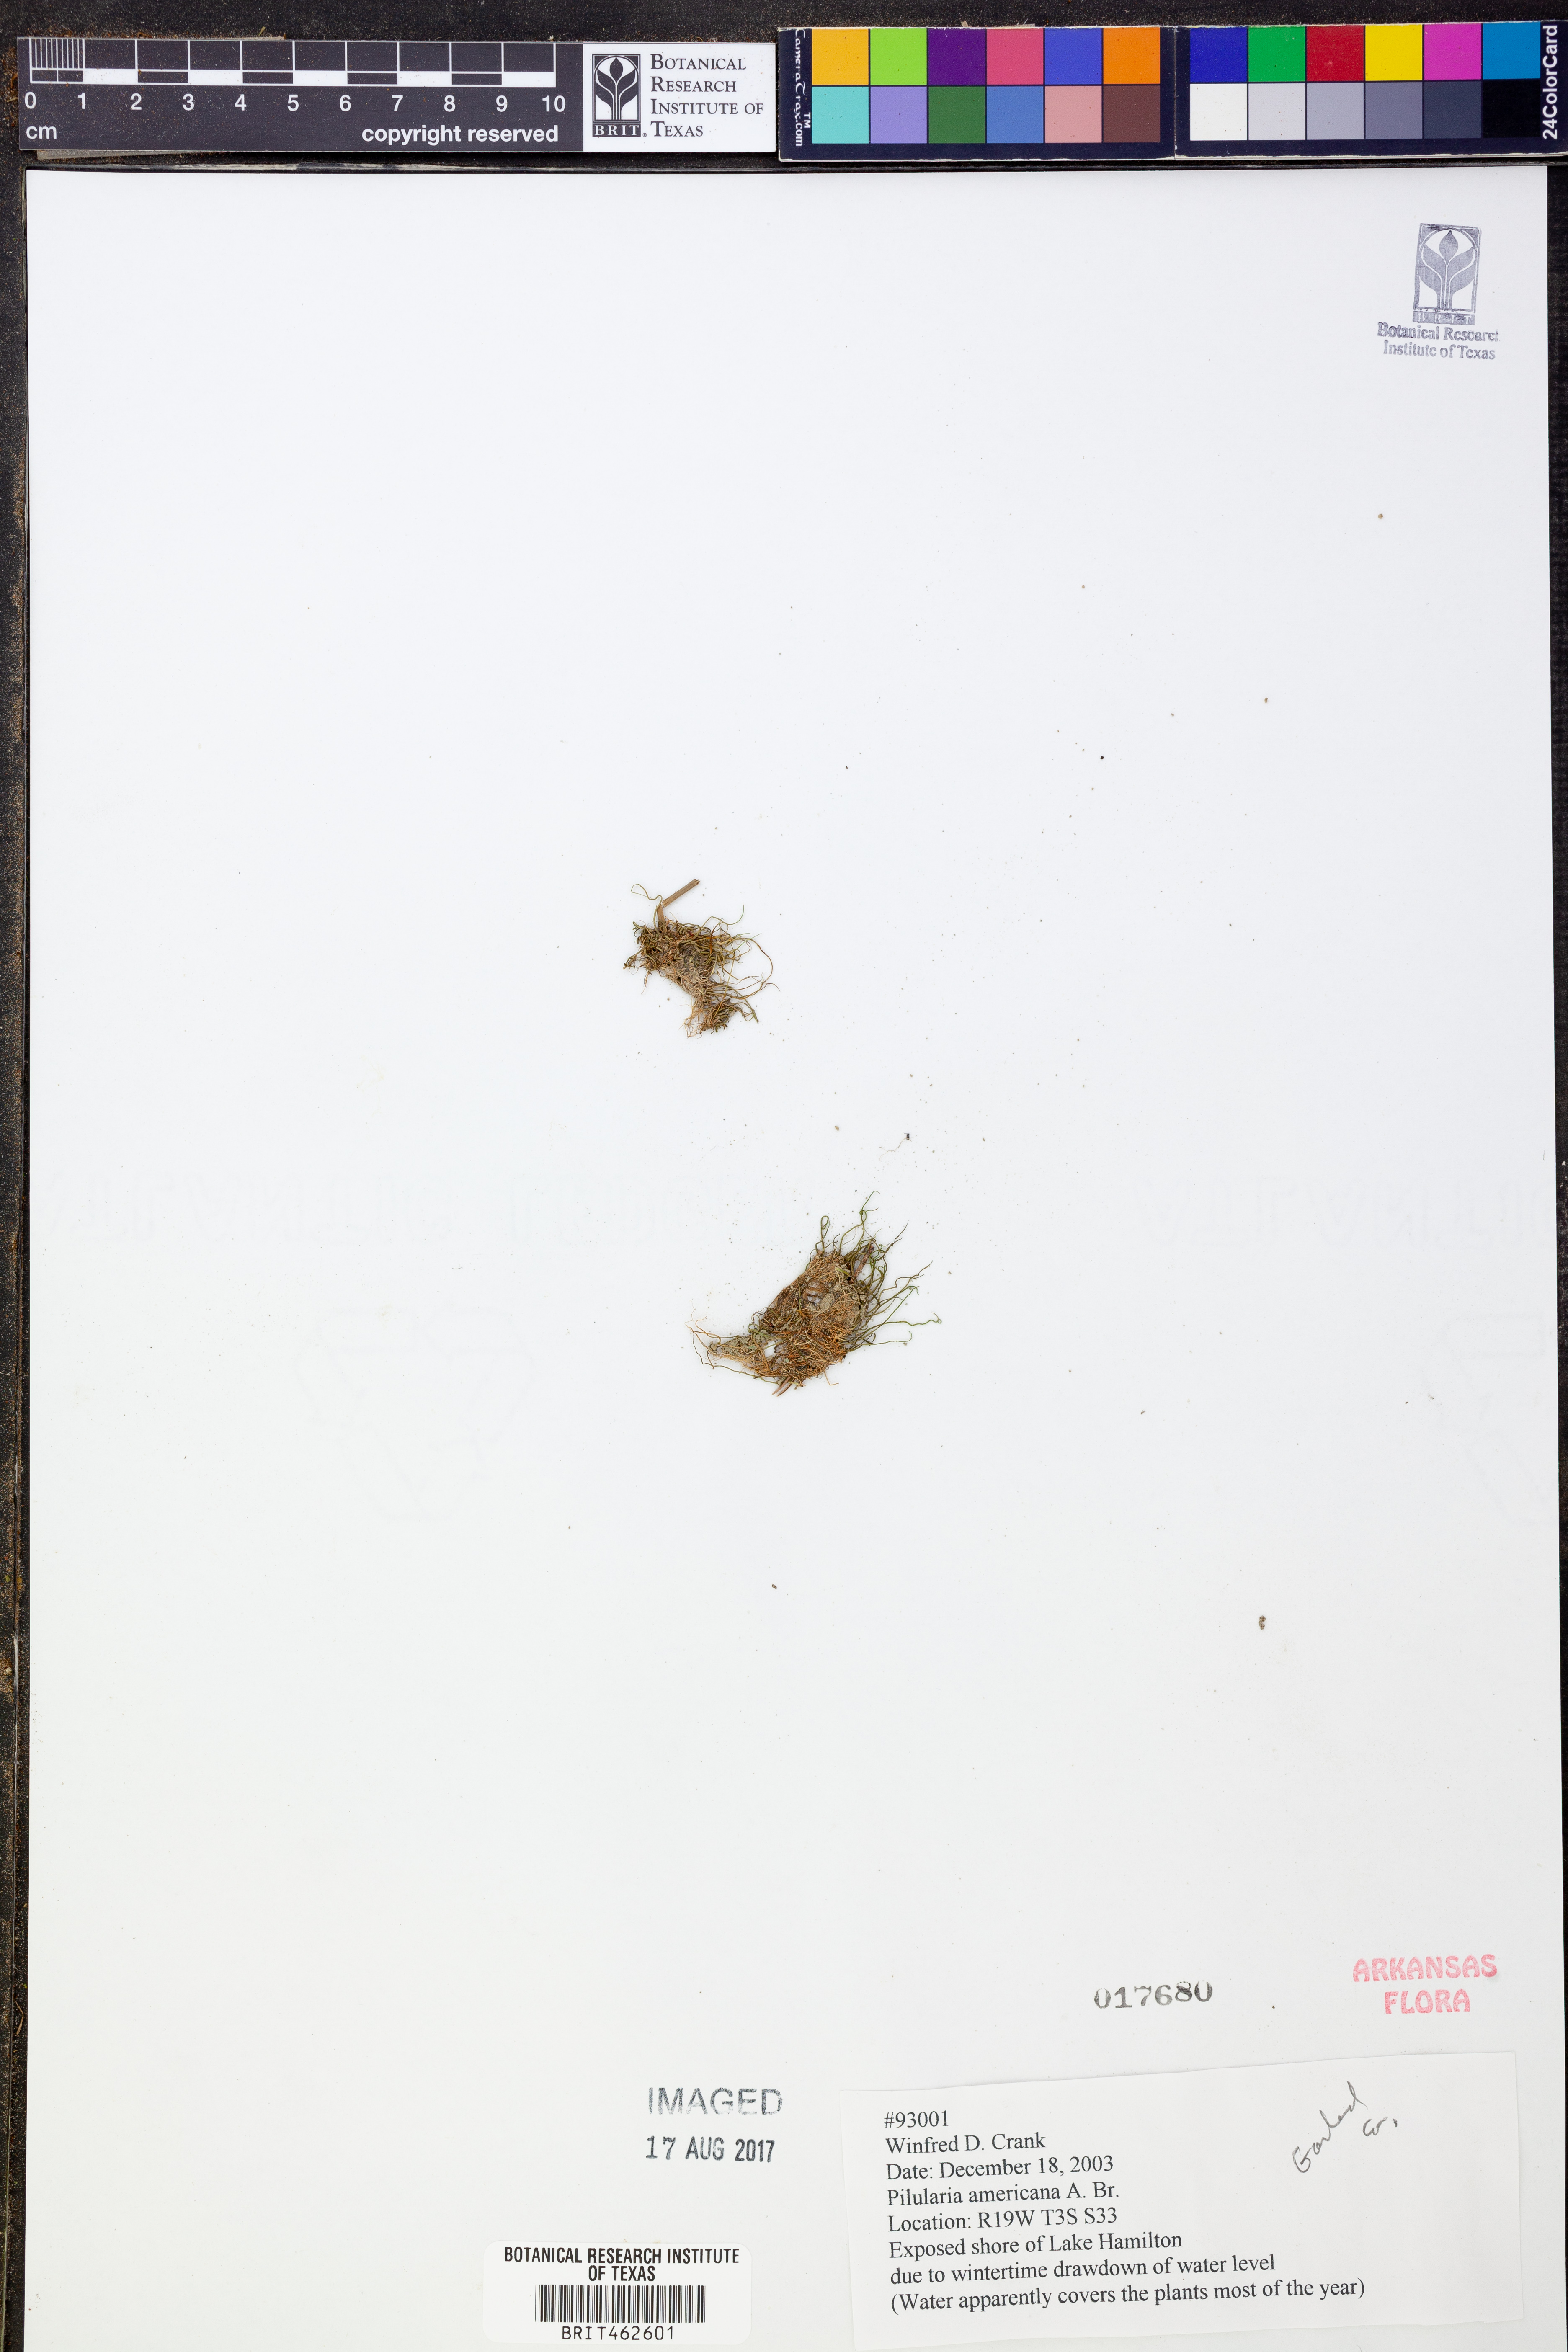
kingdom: Plantae
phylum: Tracheophyta
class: Polypodiopsida
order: Salviniales
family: Marsileaceae
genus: Pilularia
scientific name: Pilularia americana
